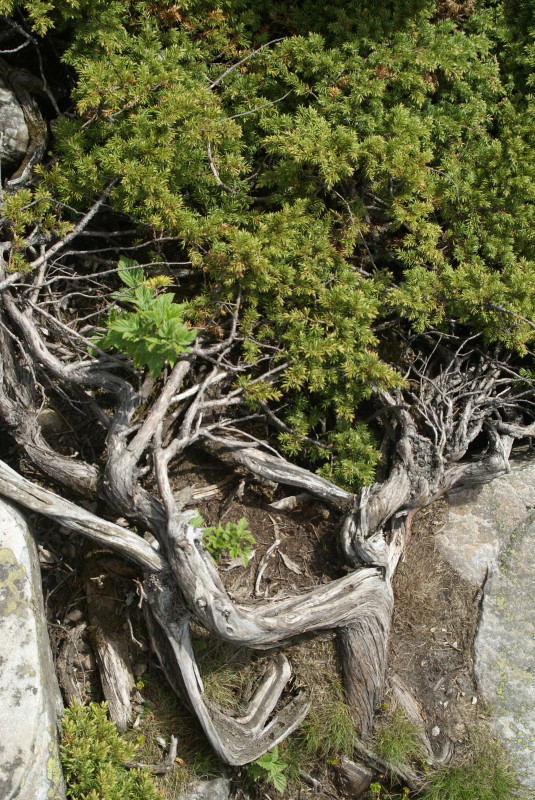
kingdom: Plantae
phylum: Tracheophyta
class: Pinopsida
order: Pinales
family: Cupressaceae
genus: Juniperus
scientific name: Juniperus communis
